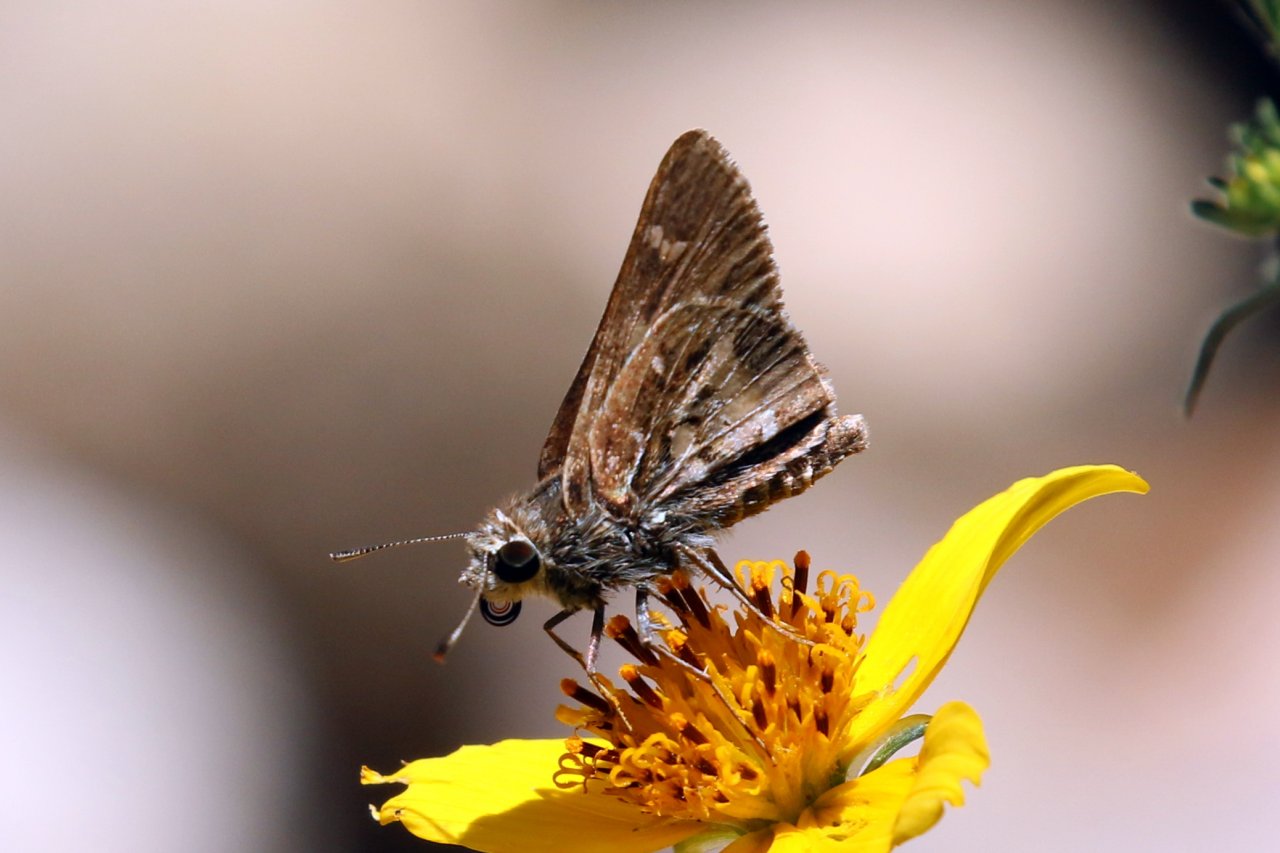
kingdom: Animalia
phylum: Arthropoda
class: Insecta
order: Lepidoptera
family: Hesperiidae
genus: Atrytonopsis
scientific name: Atrytonopsis python
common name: Cestus Skipper
